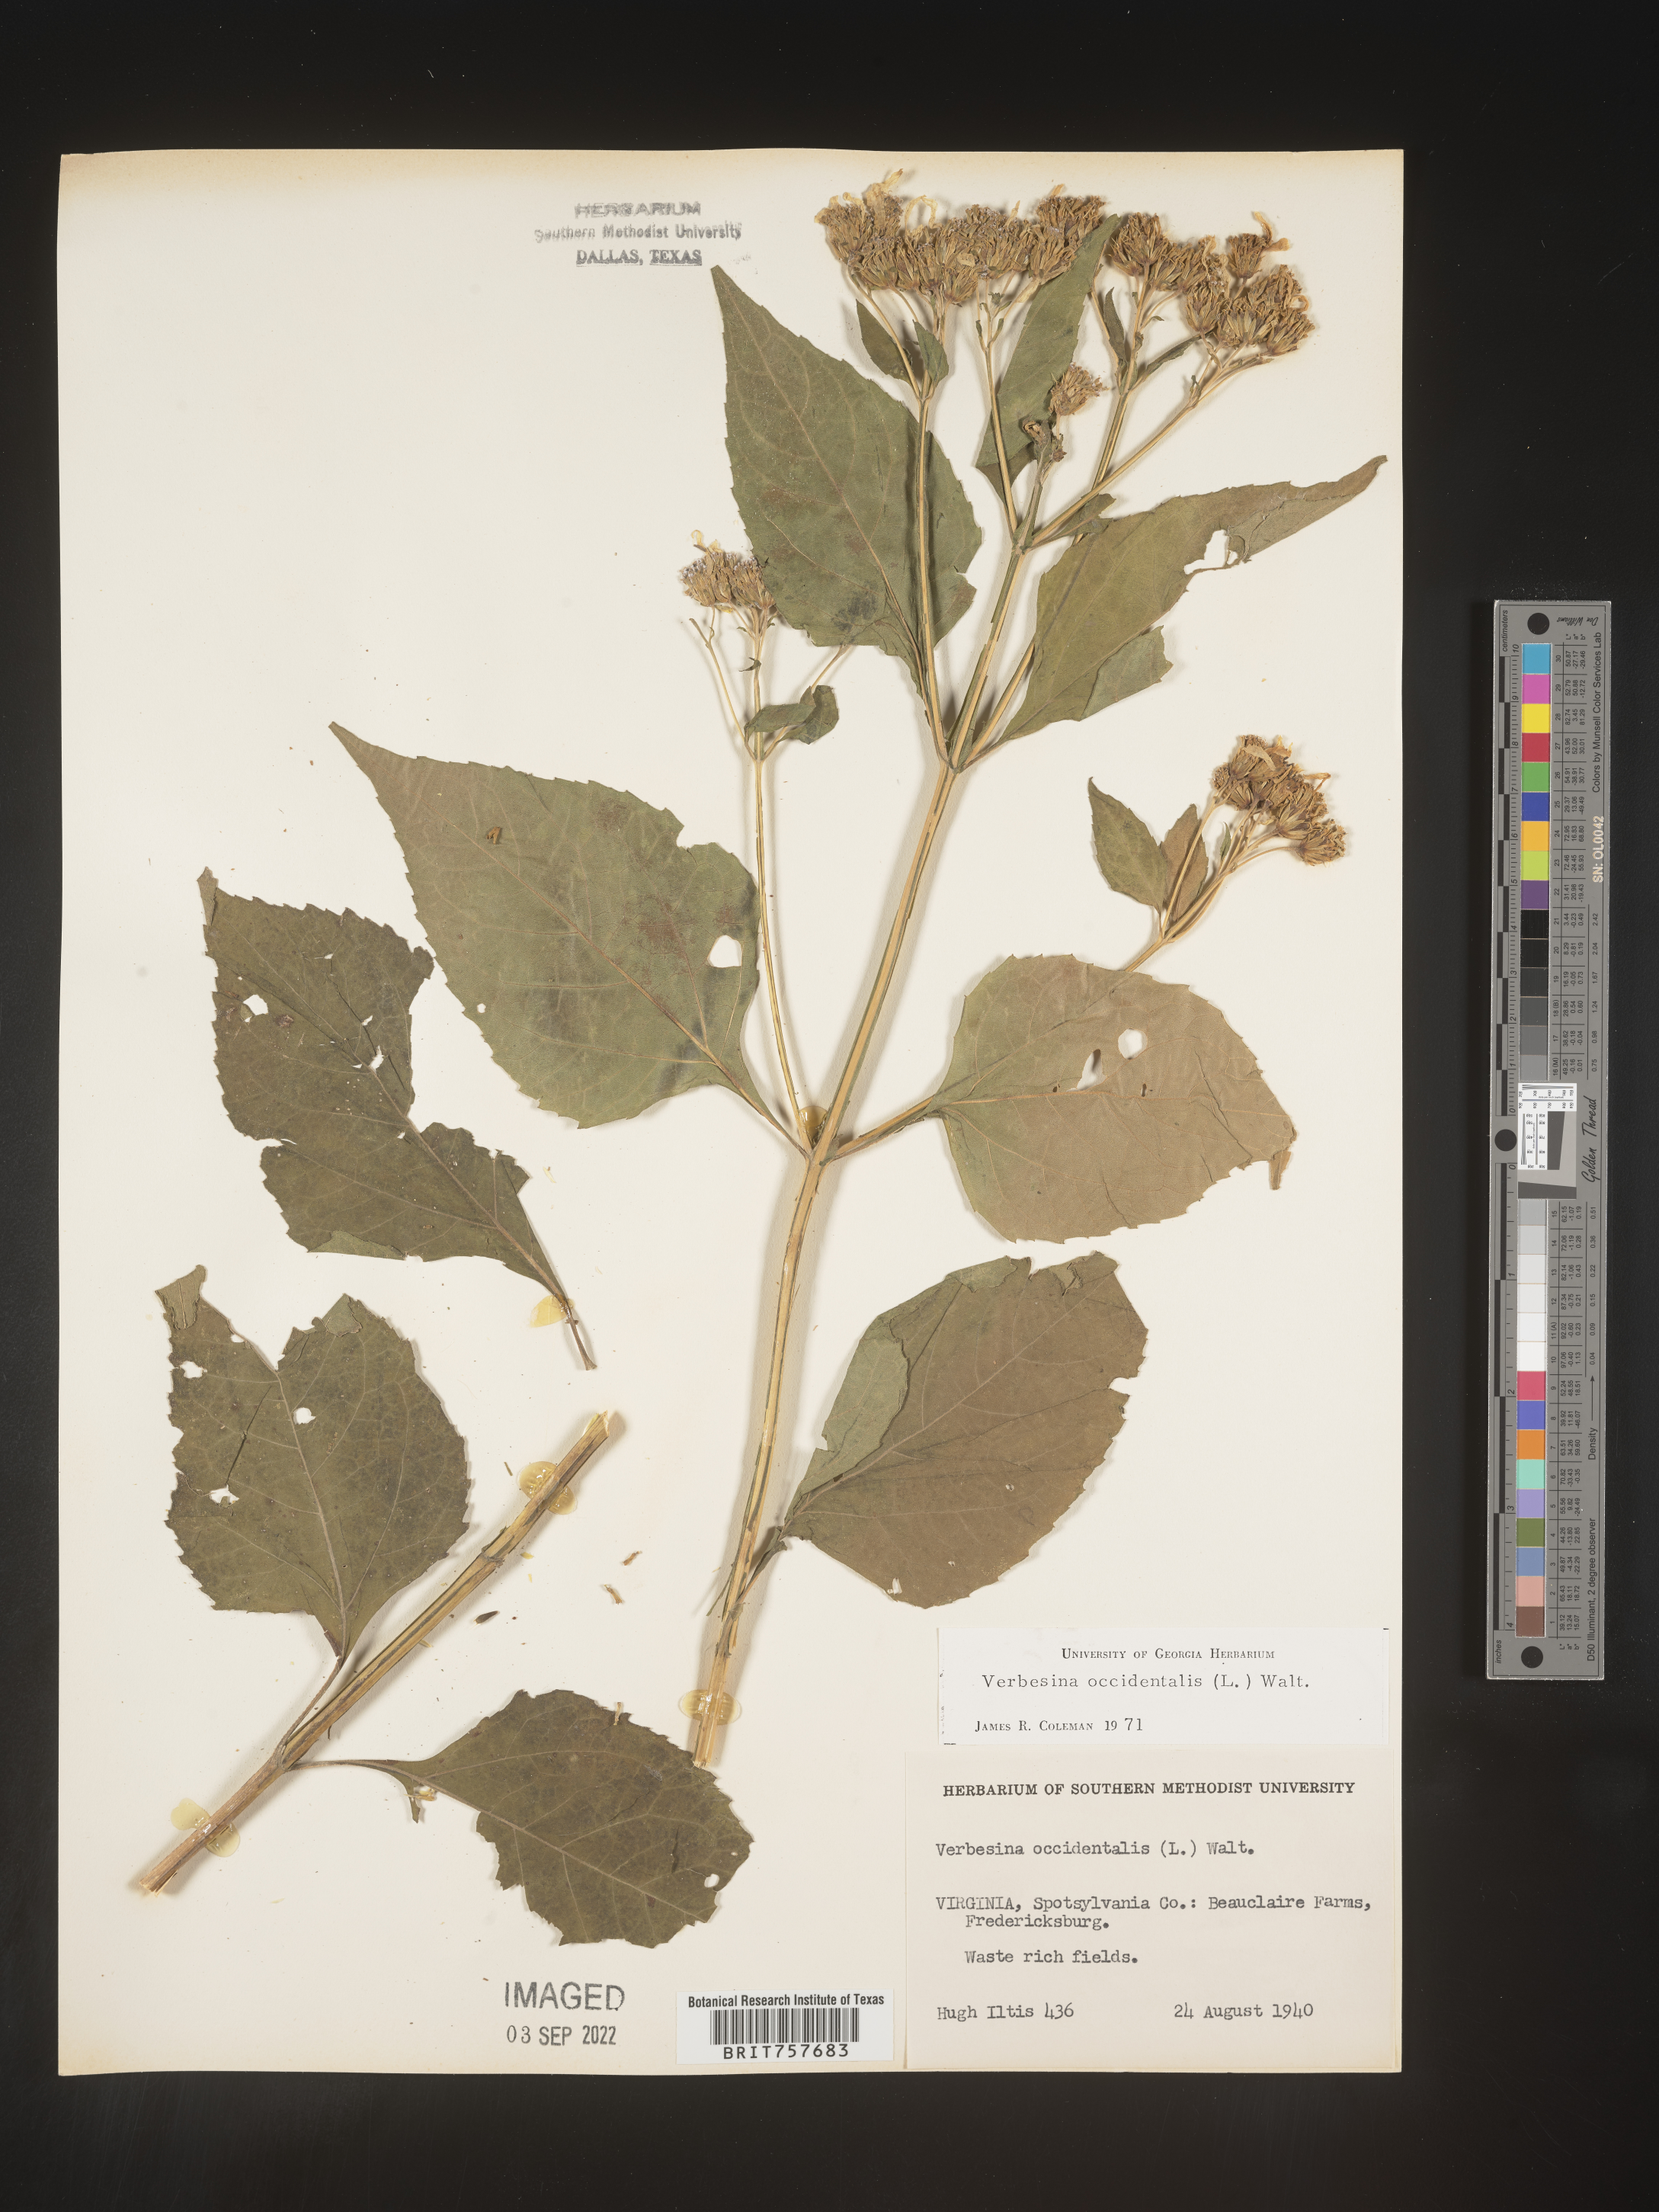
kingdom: Plantae
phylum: Tracheophyta
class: Magnoliopsida
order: Asterales
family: Asteraceae
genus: Verbesina
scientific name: Verbesina occidentalis
